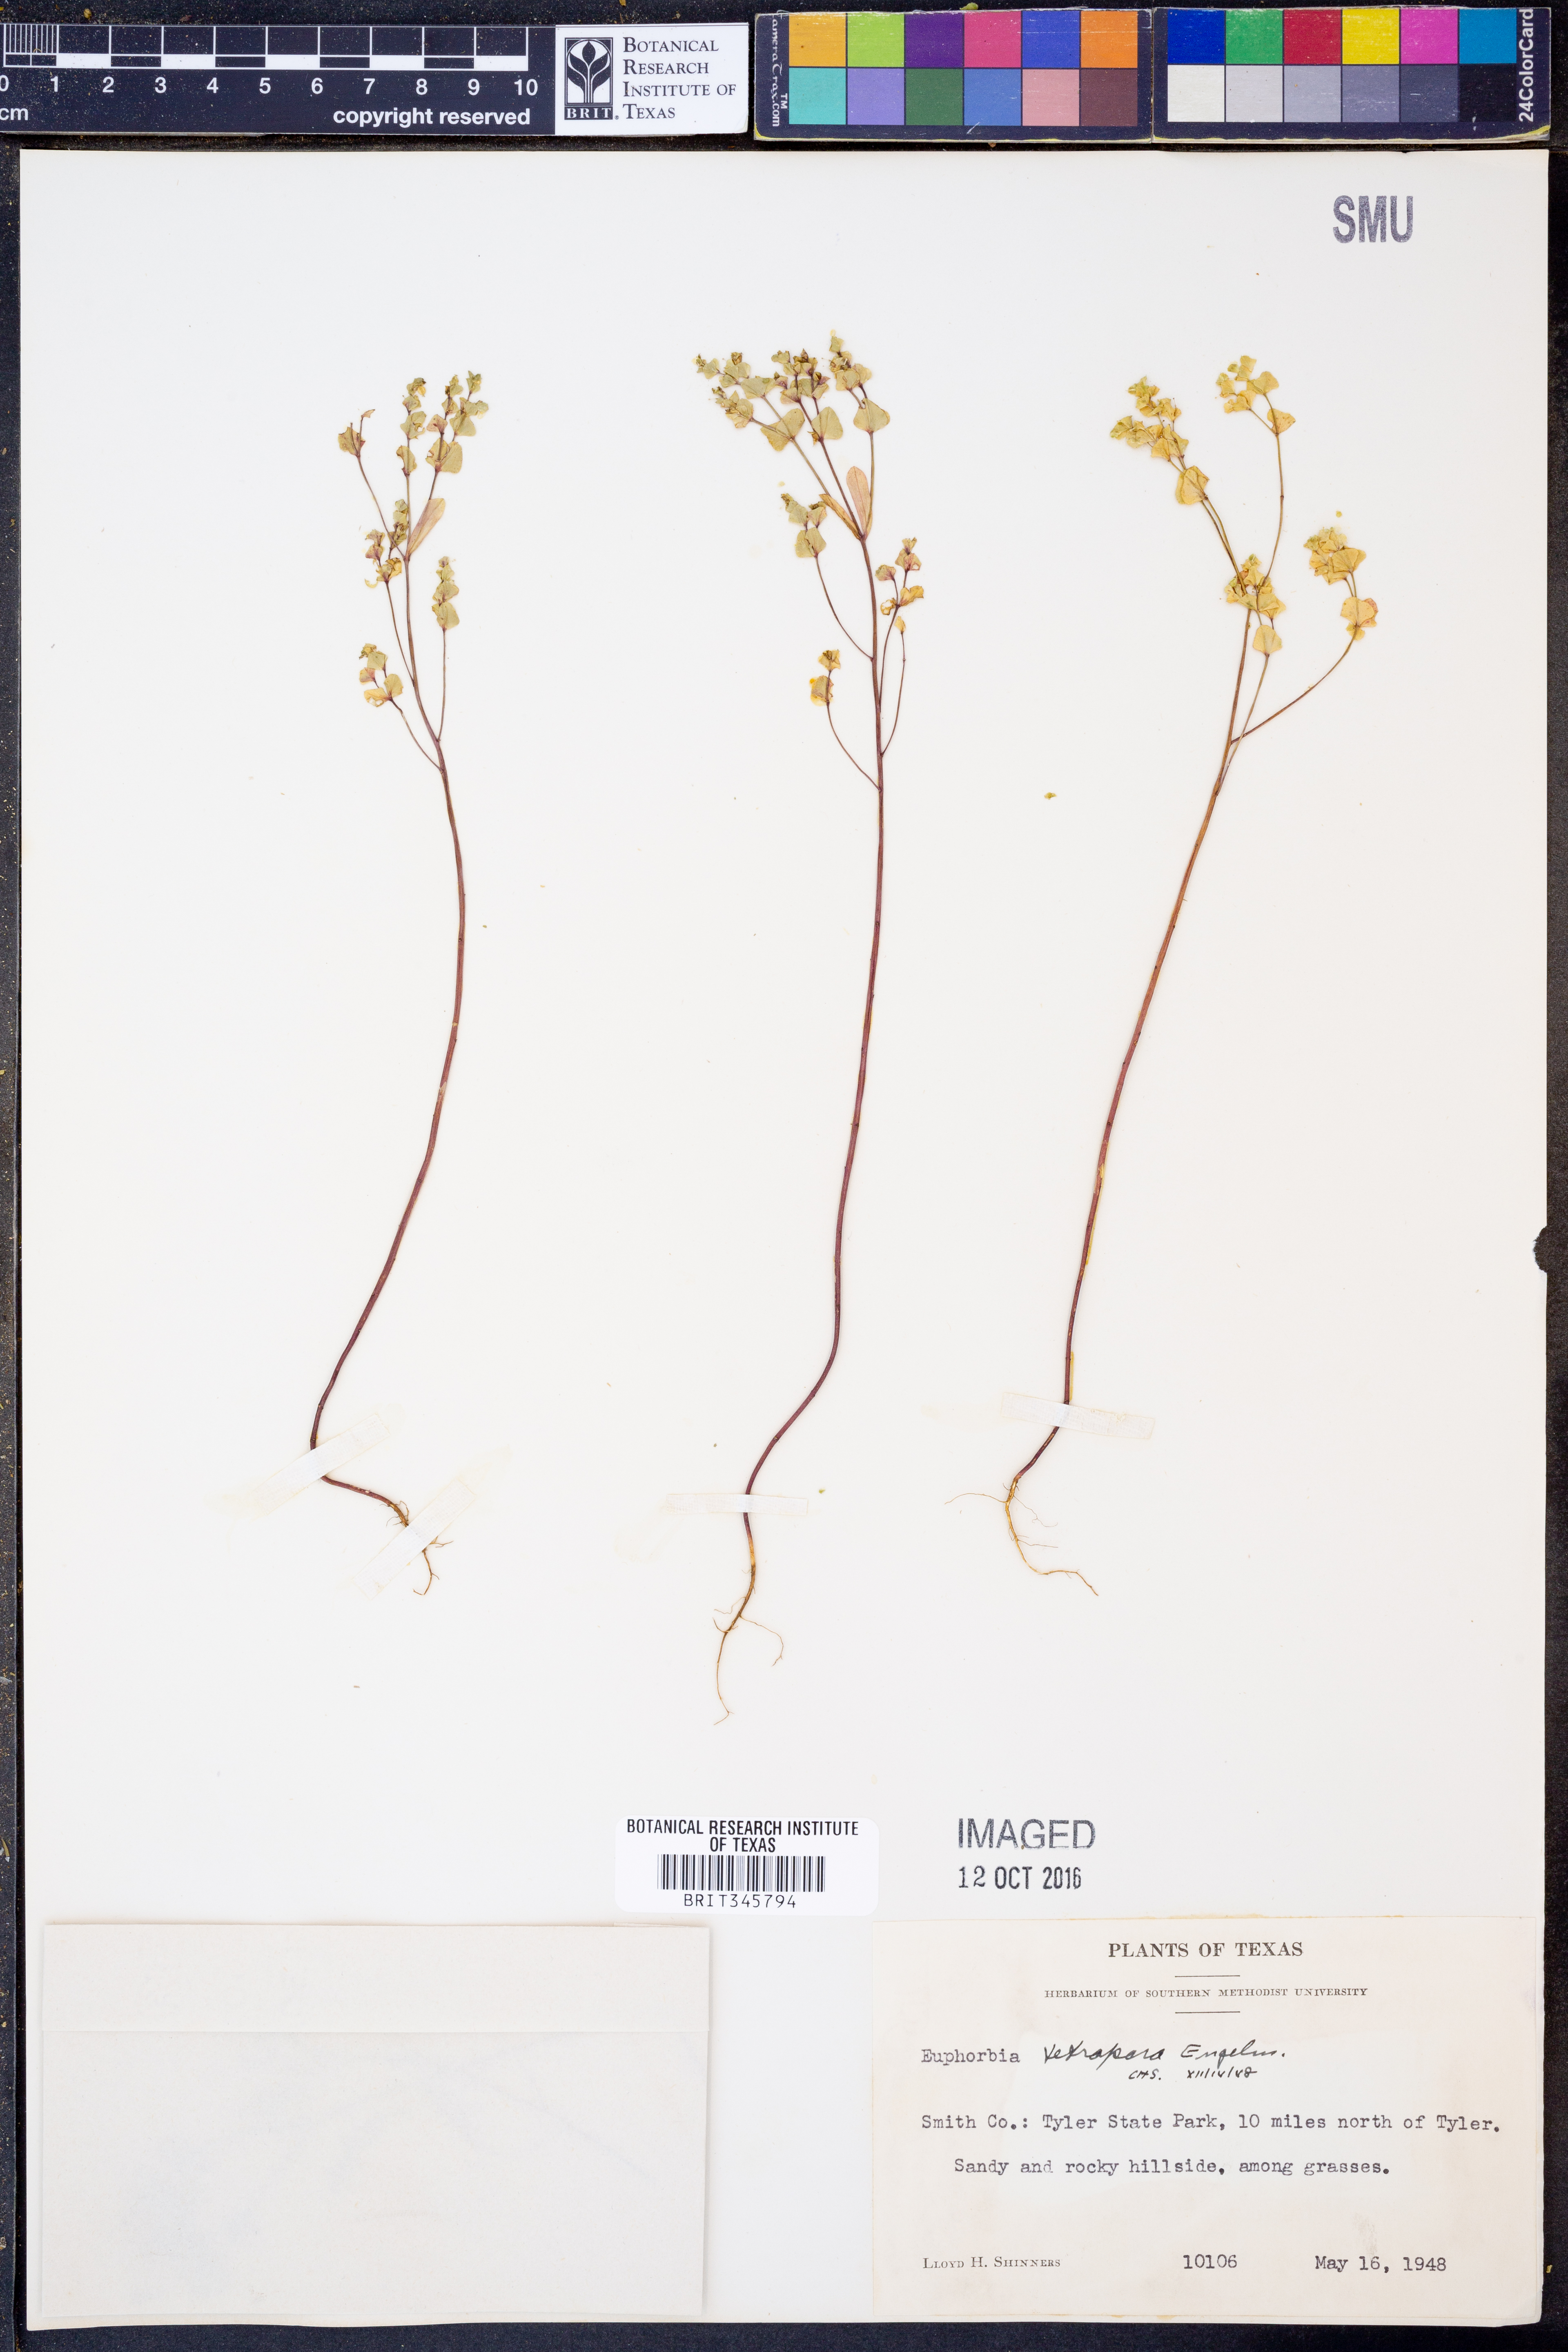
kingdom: Plantae
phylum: Tracheophyta
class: Magnoliopsida
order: Malpighiales
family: Euphorbiaceae
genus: Euphorbia
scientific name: Euphorbia tetrapora
